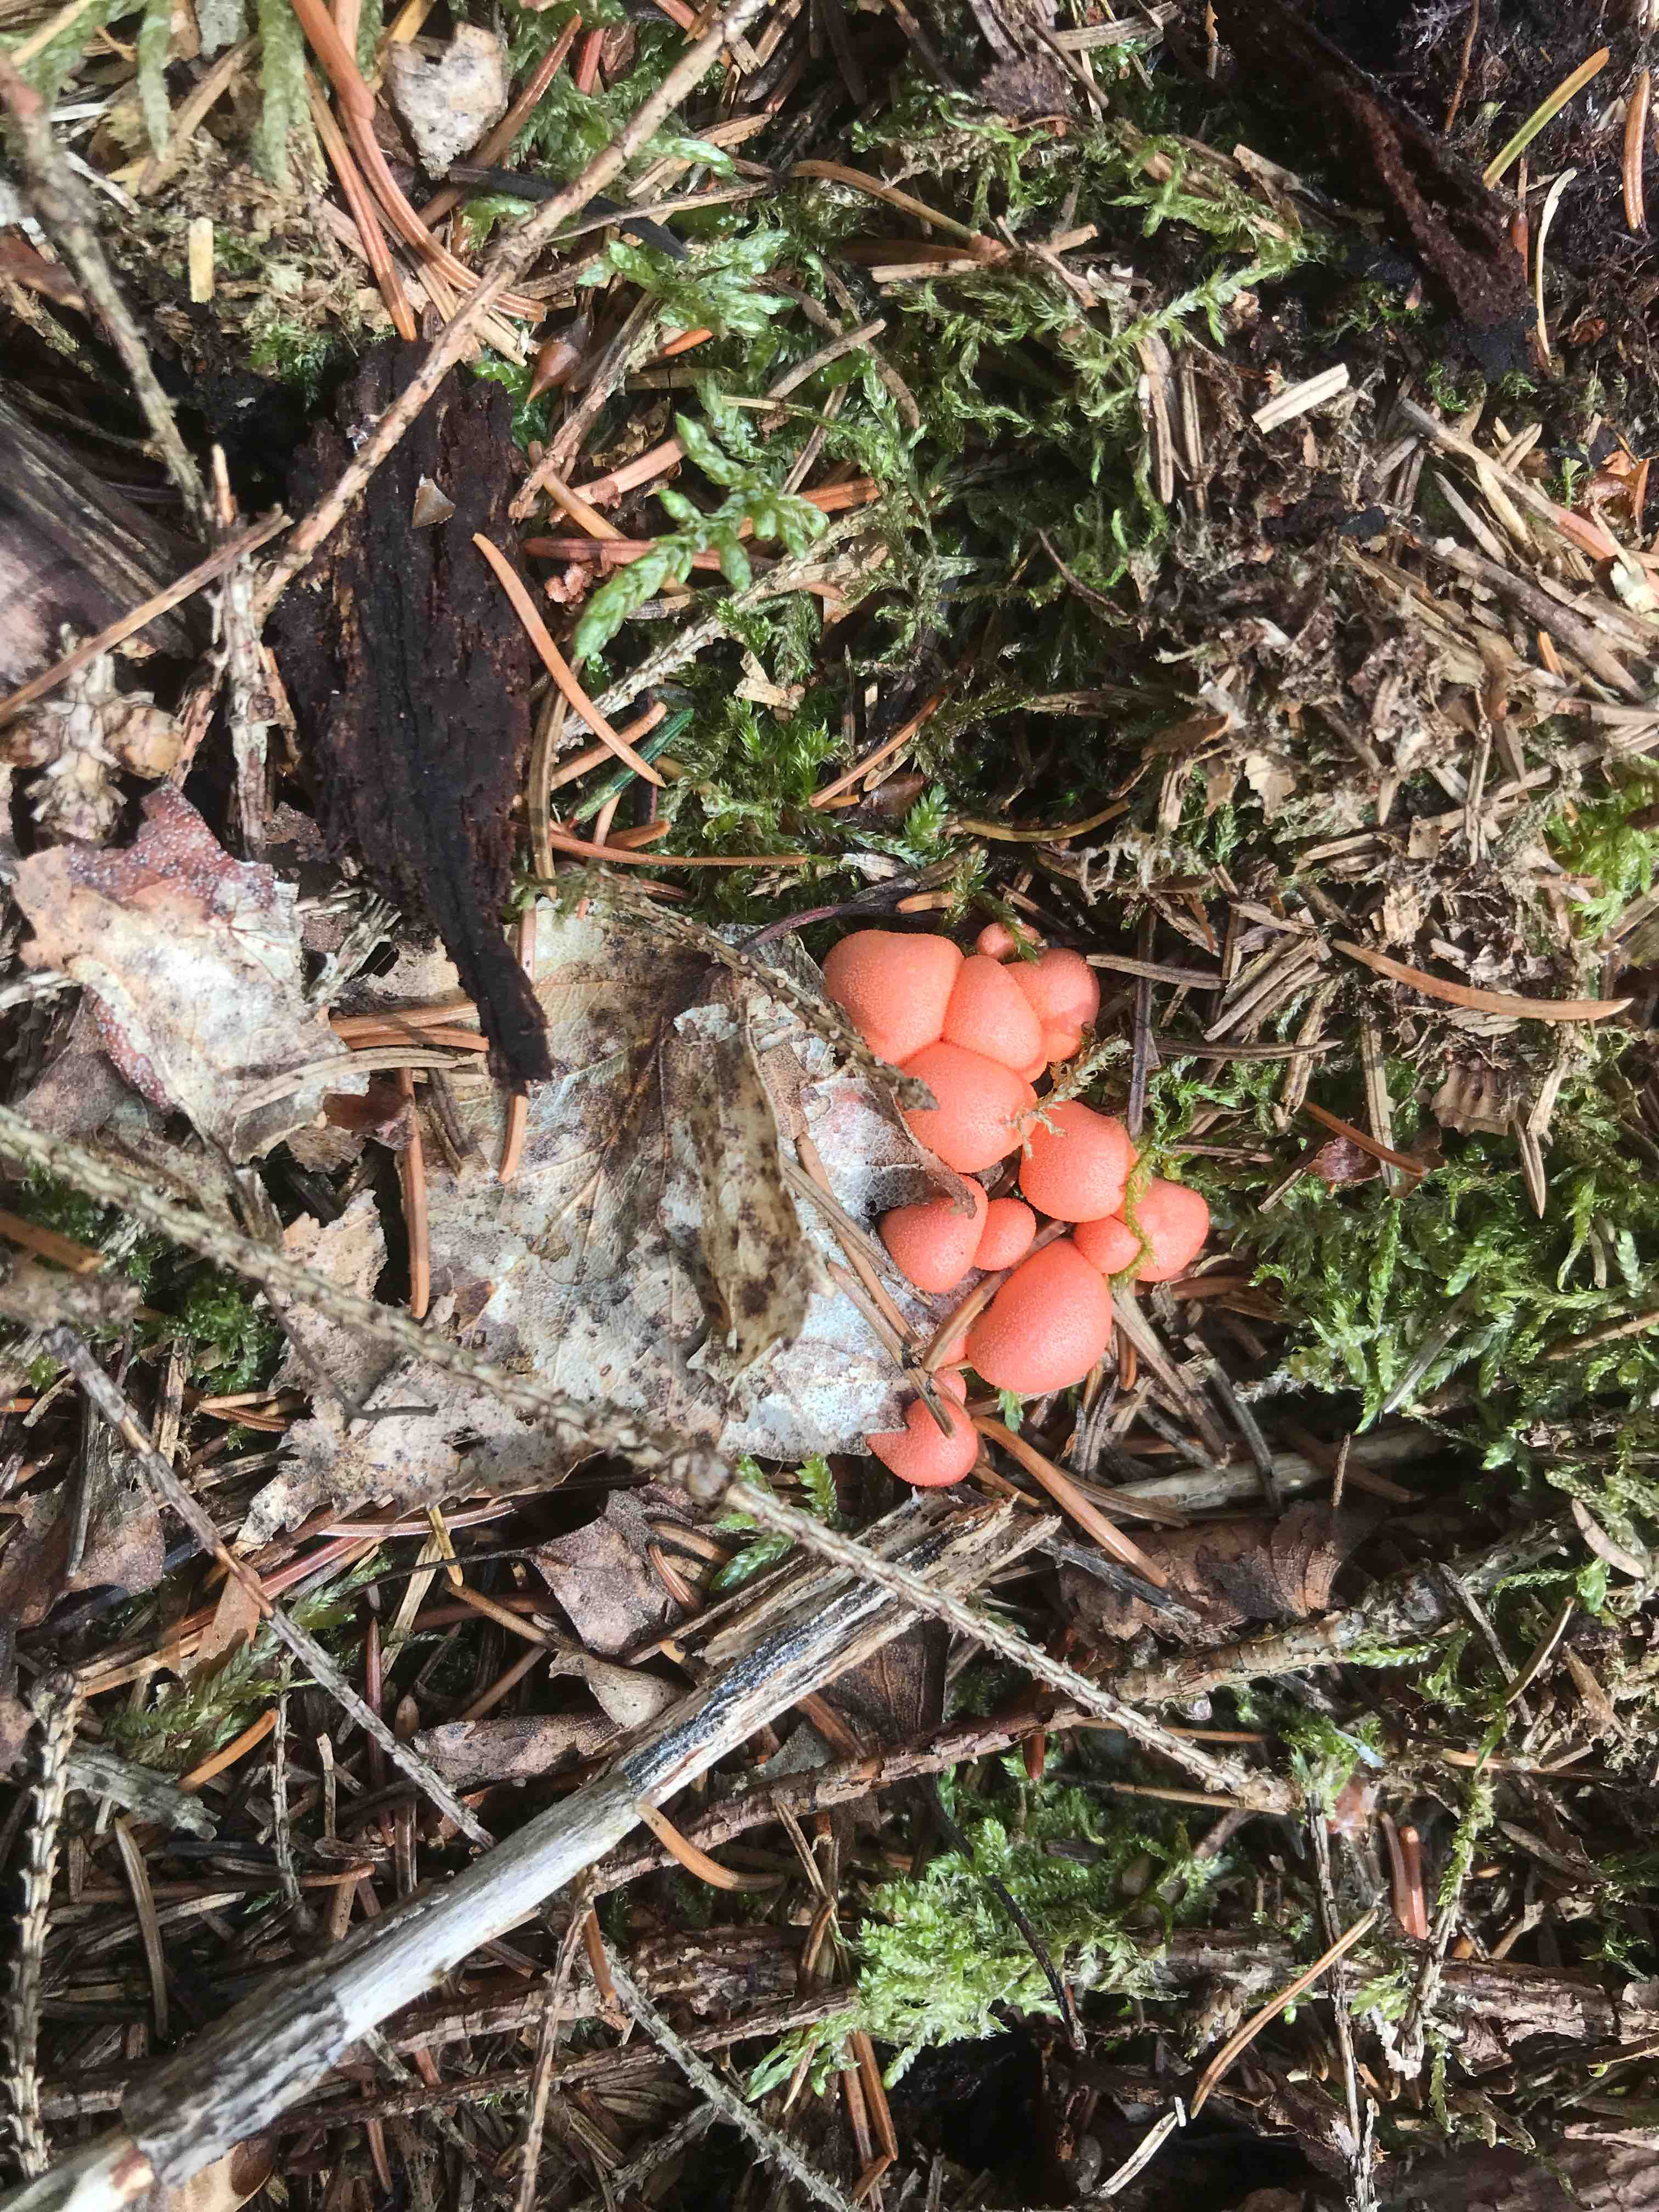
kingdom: Protozoa
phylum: Mycetozoa
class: Myxomycetes
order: Cribrariales
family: Tubiferaceae
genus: Lycogala
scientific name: Lycogala epidendrum
